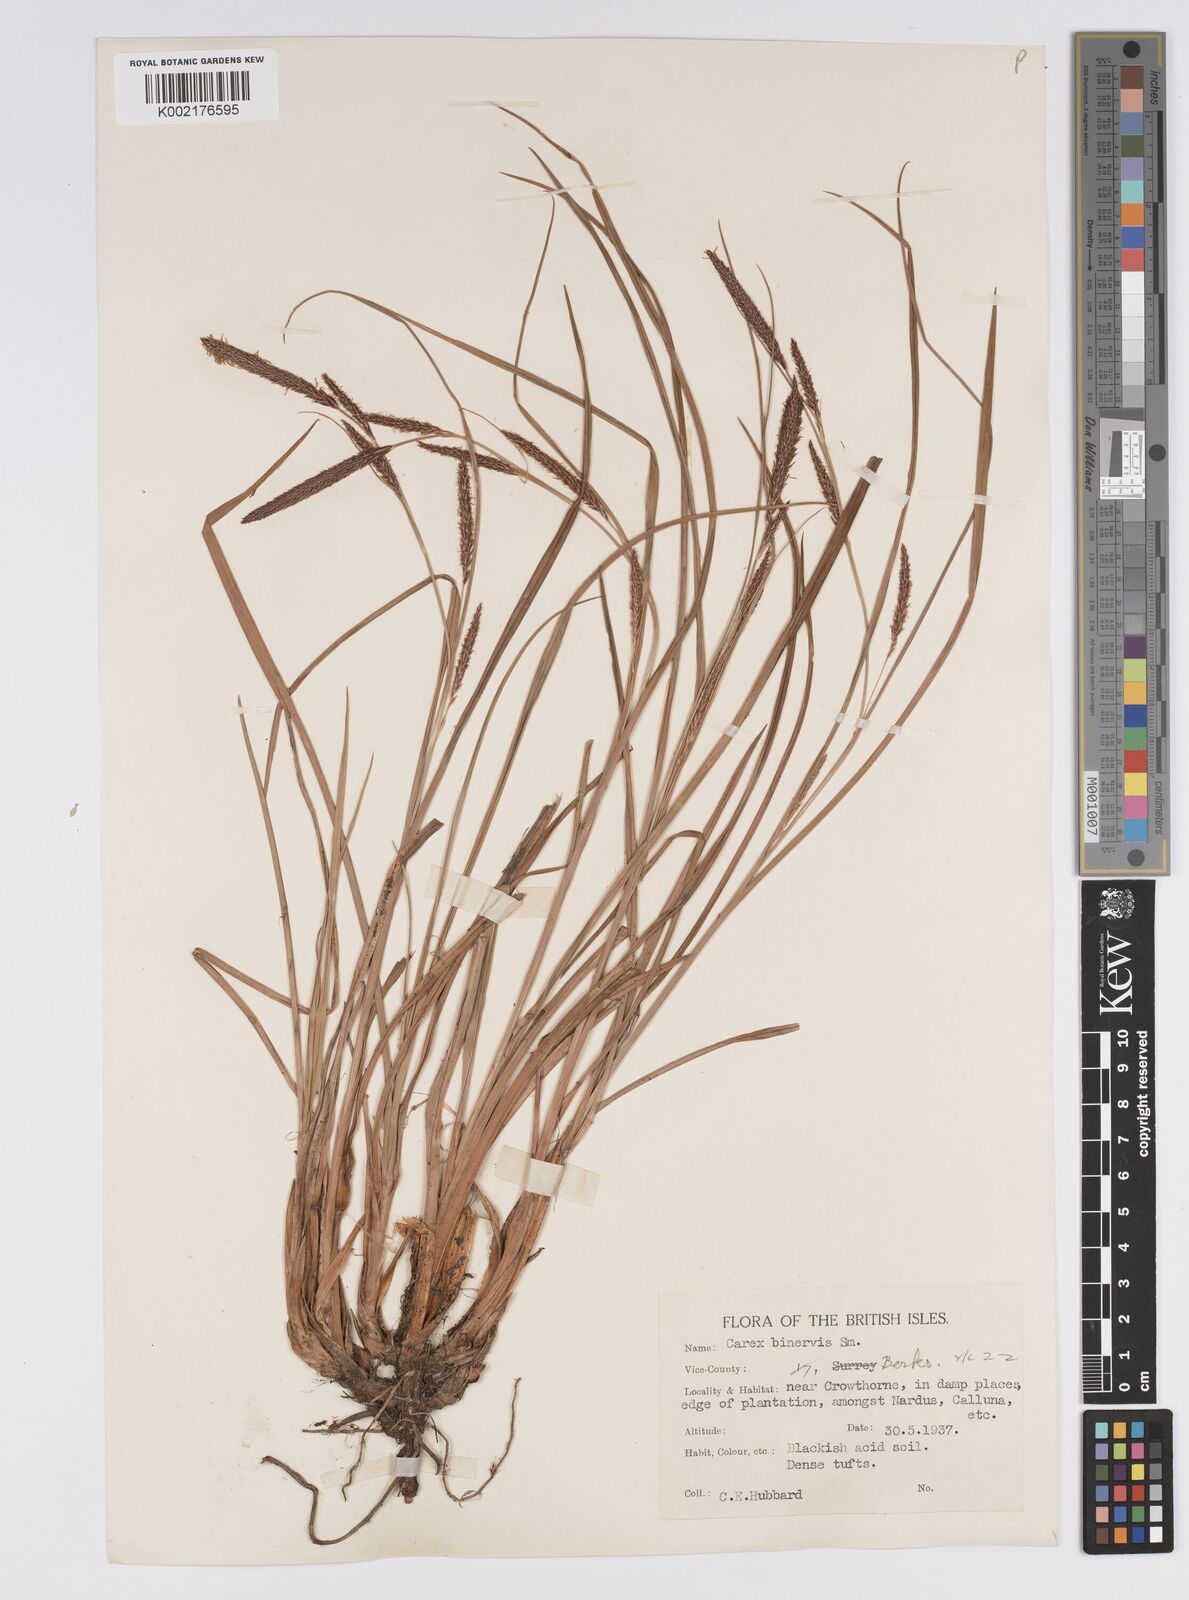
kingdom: Plantae
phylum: Tracheophyta
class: Liliopsida
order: Poales
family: Cyperaceae
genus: Carex
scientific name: Carex binervis
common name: Green-ribbed sedge
